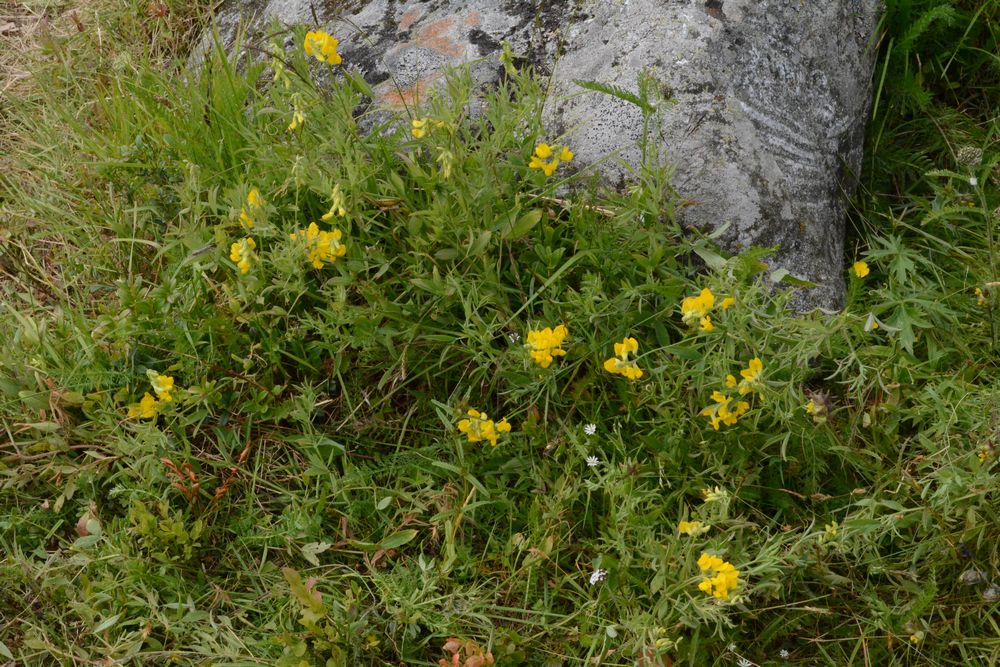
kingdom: Plantae
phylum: Tracheophyta
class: Magnoliopsida
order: Fabales
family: Fabaceae
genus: Lathyrus
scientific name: Lathyrus pratensis
